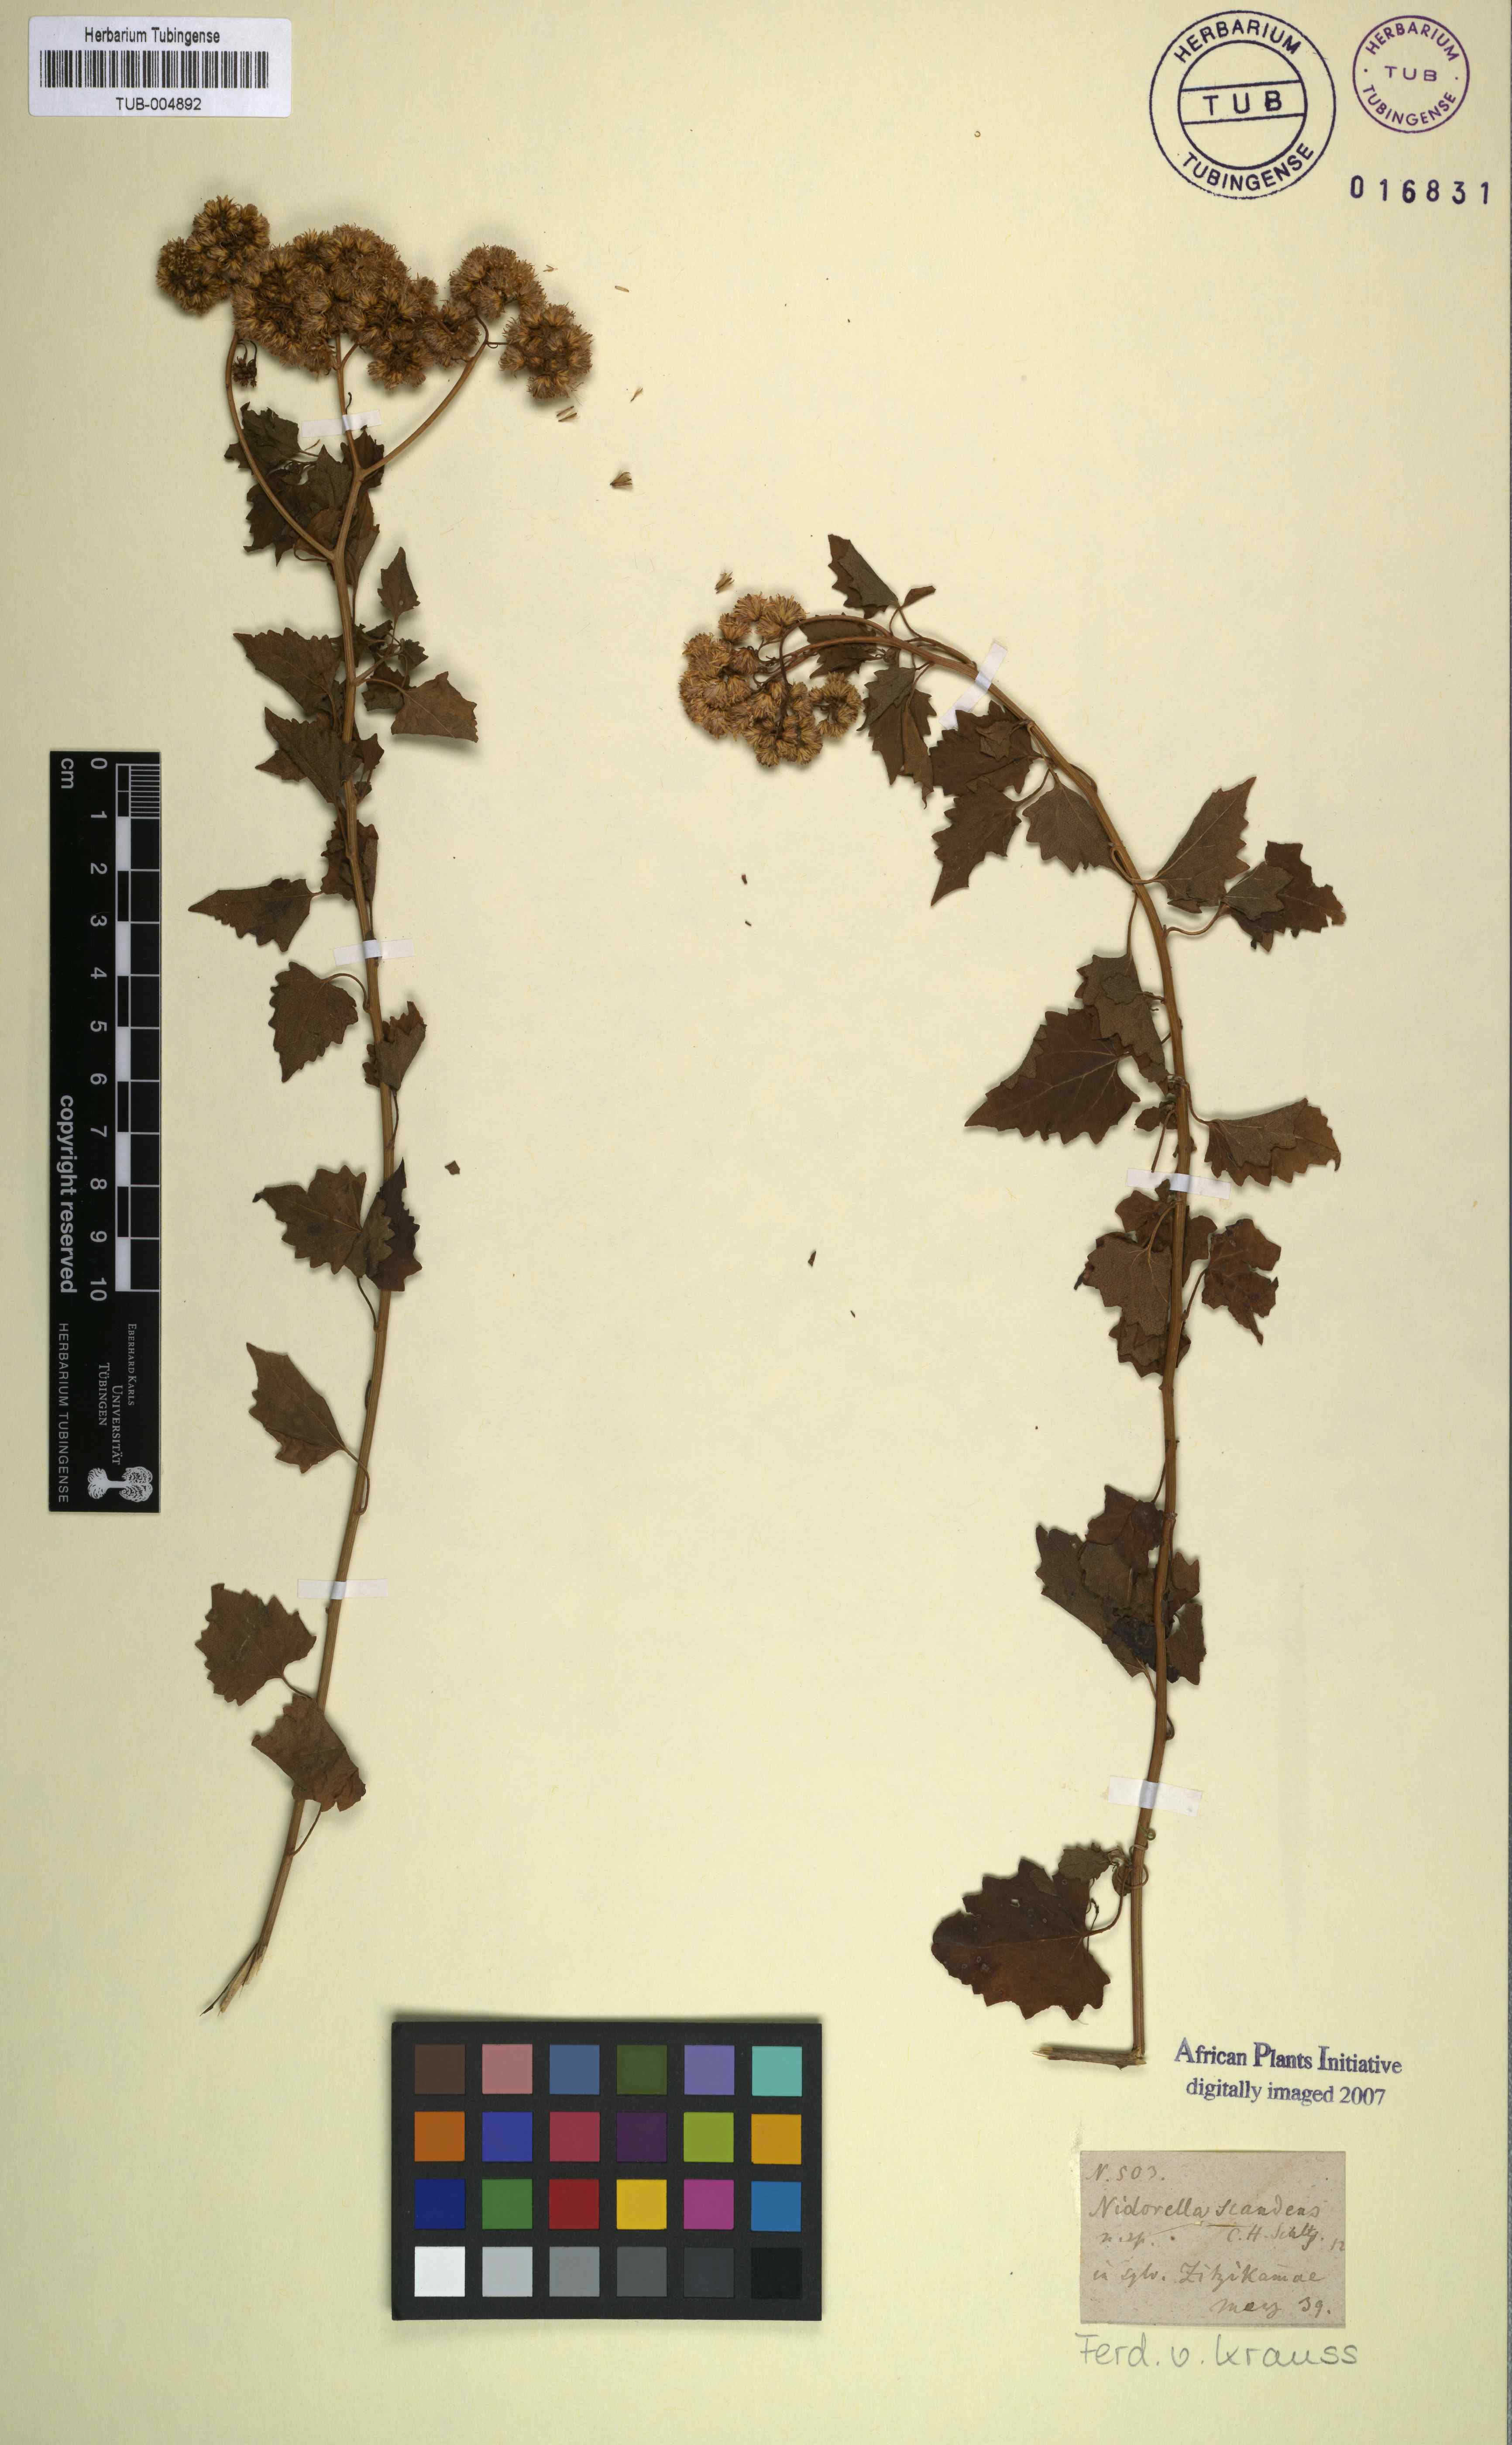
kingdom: Plantae
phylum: Tracheophyta
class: Magnoliopsida
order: Asterales
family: Asteraceae
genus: Microglossa
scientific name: Microglossa mespilifolia
